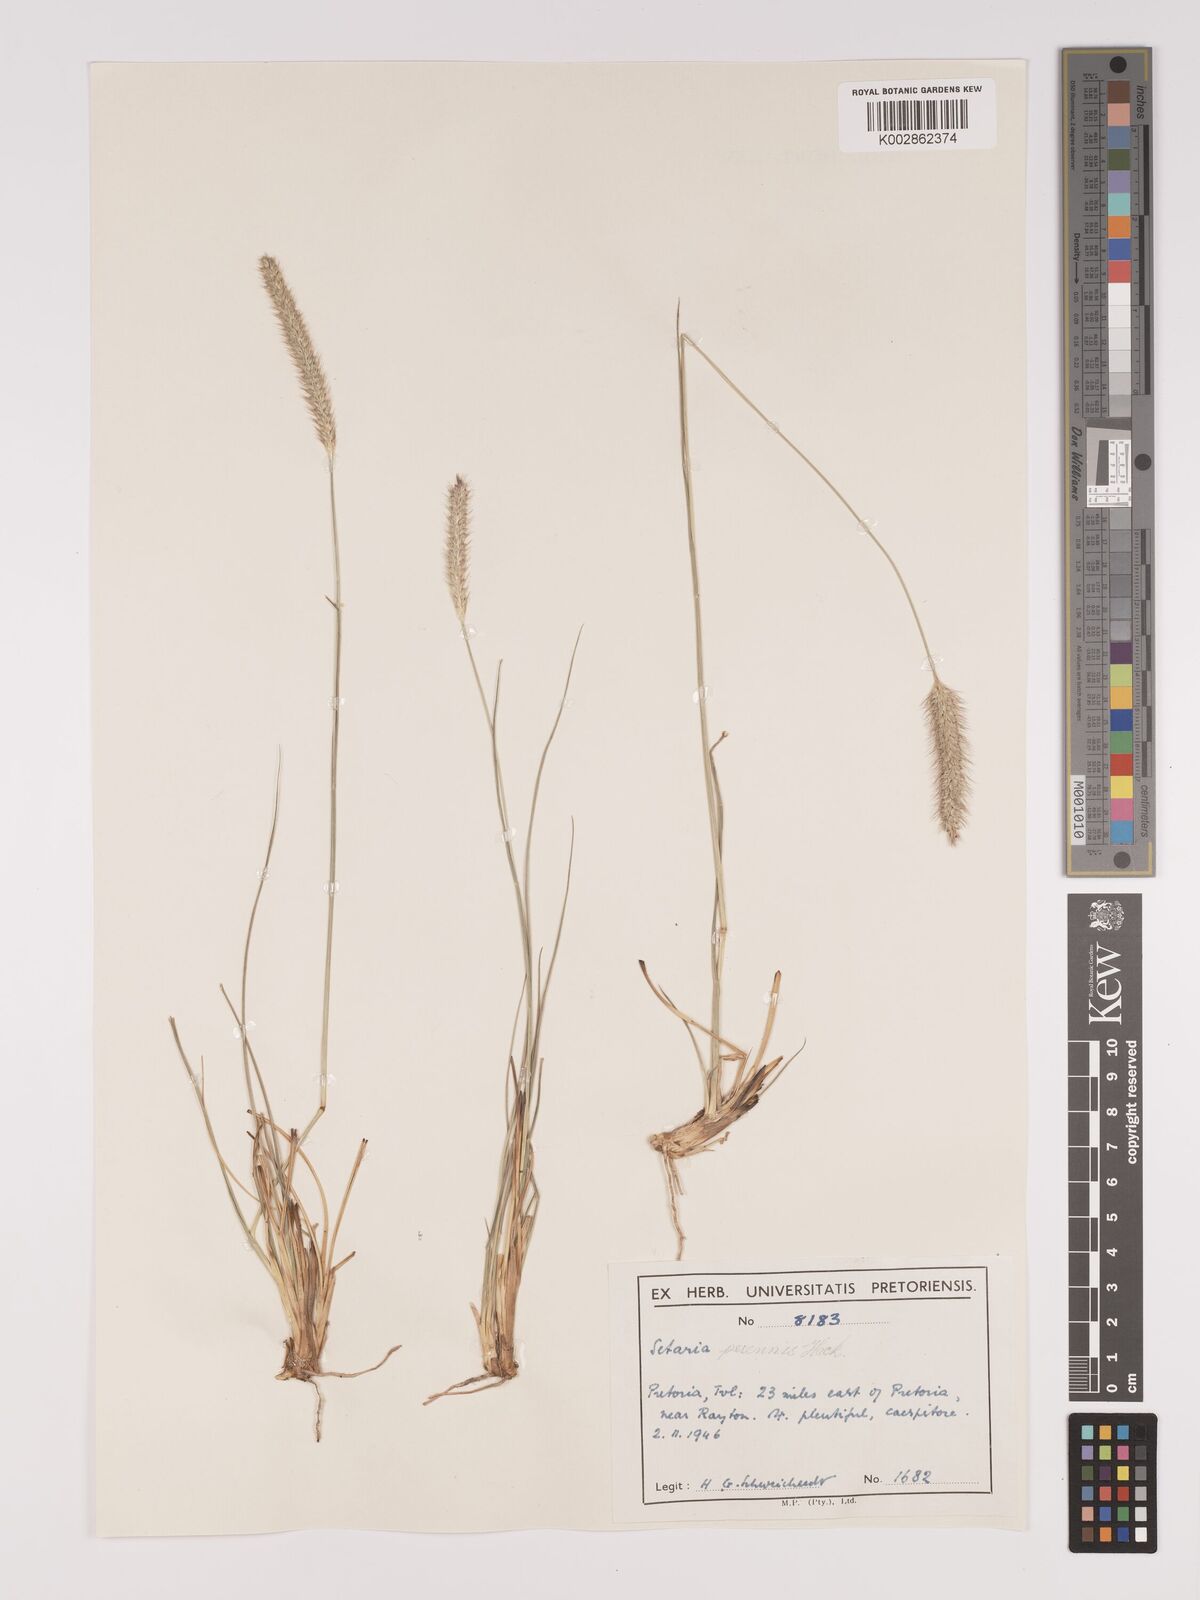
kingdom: Plantae
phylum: Tracheophyta
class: Liliopsida
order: Poales
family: Poaceae
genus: Setaria
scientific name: Setaria
